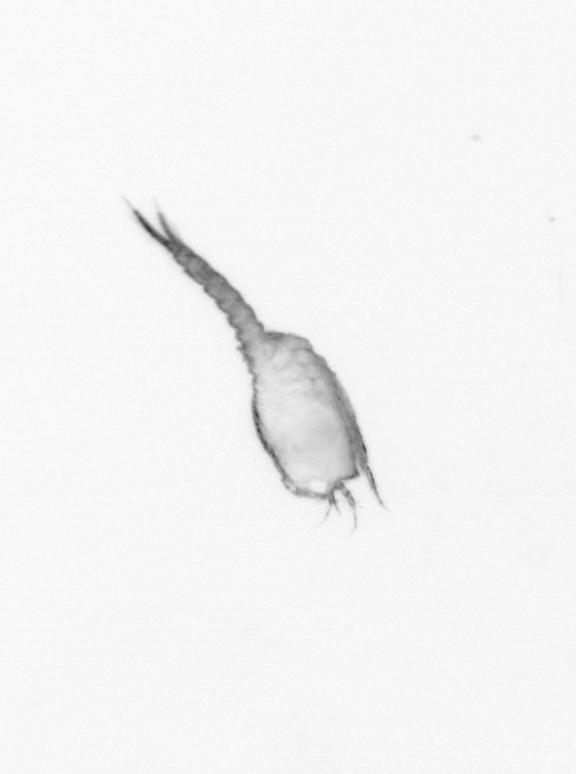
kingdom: Animalia
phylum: Arthropoda
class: Copepoda
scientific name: Copepoda
